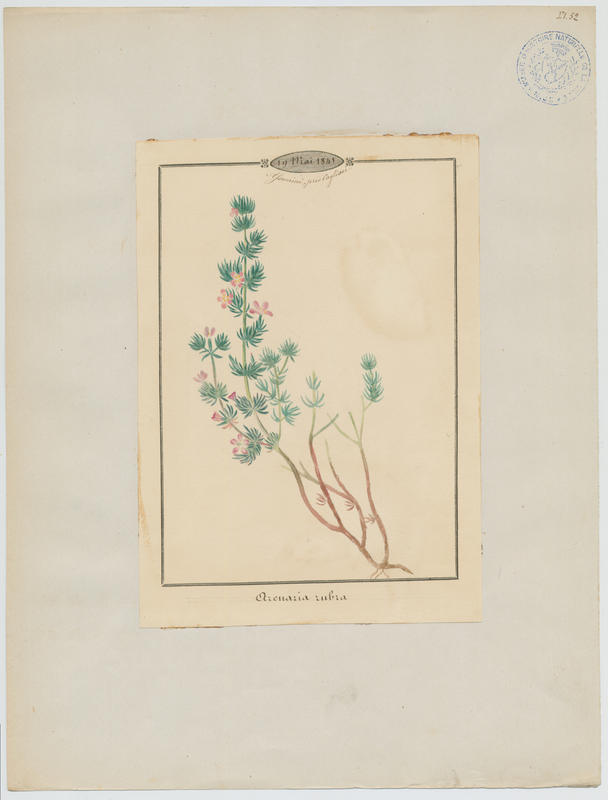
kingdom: Plantae
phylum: Tracheophyta
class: Magnoliopsida
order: Caryophyllales
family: Caryophyllaceae
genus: Spergularia
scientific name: Spergularia rubra
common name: Red sand-spurrey
